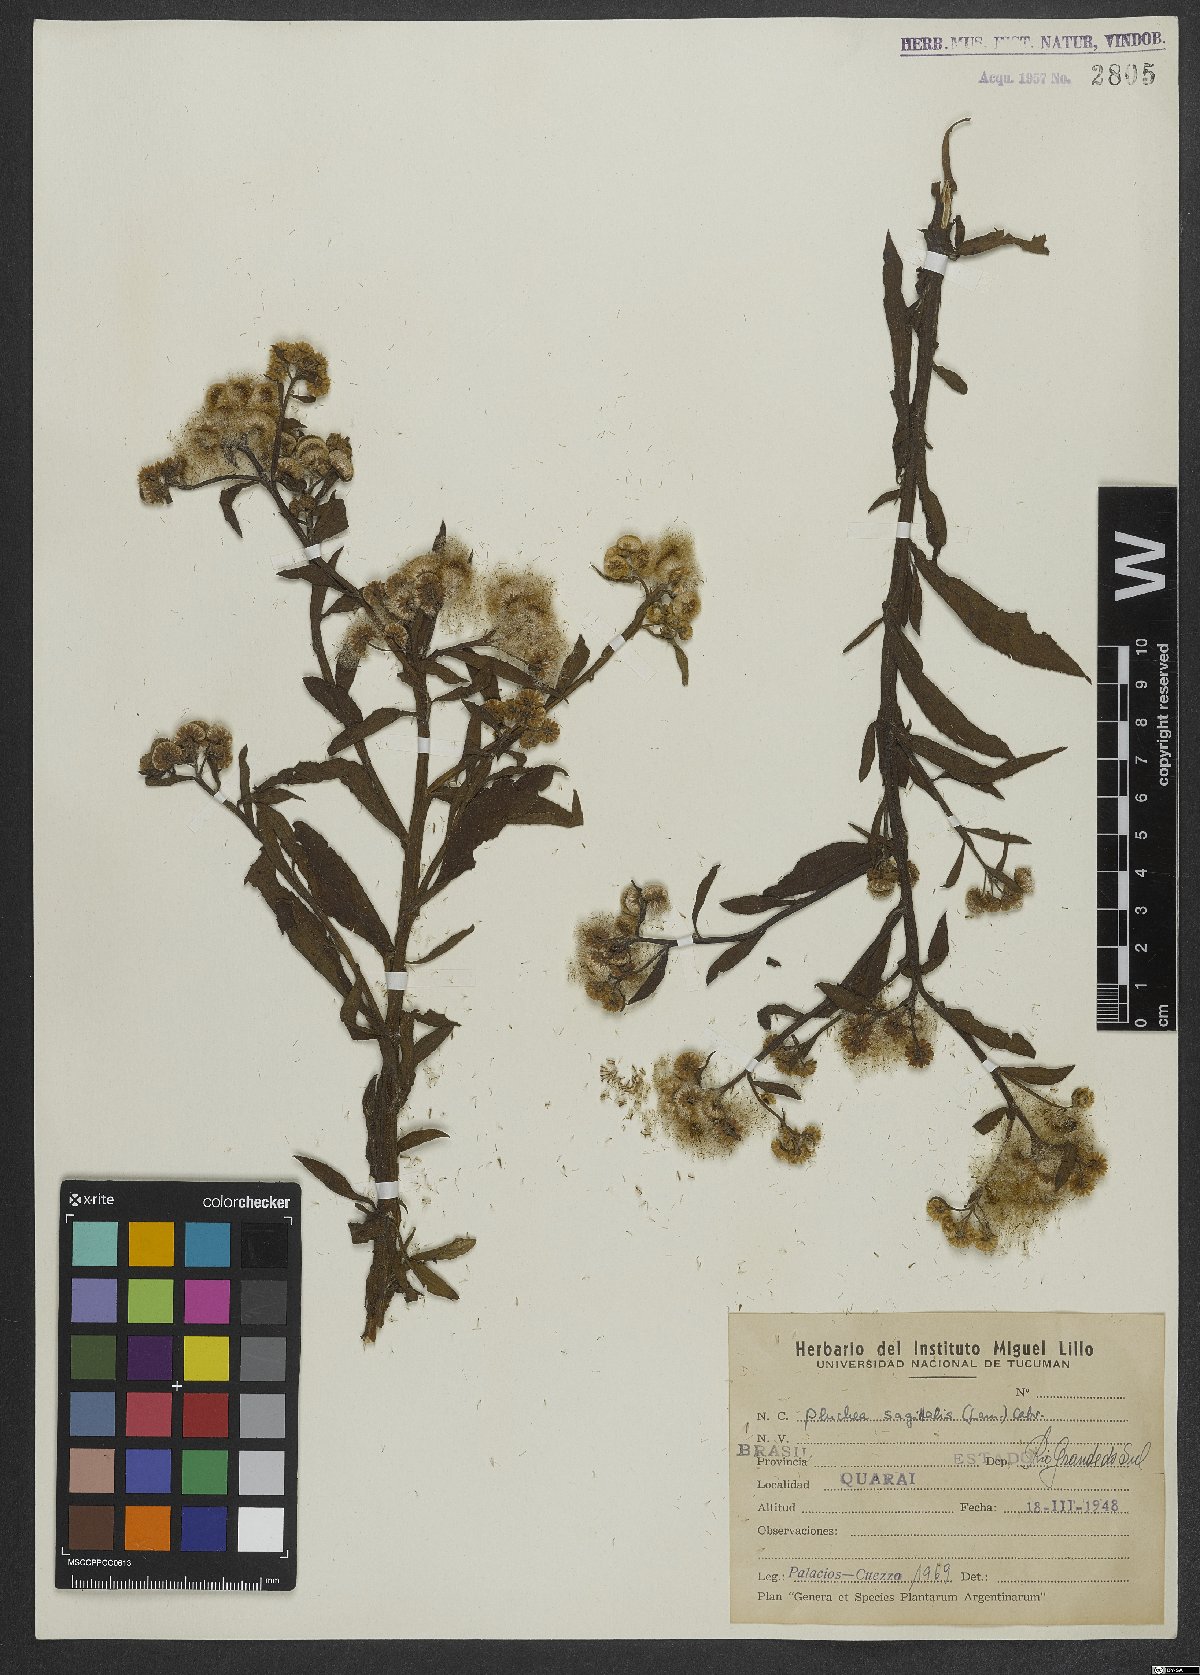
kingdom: Plantae
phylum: Tracheophyta
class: Magnoliopsida
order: Asterales
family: Asteraceae
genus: Pluchea
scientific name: Pluchea sagittalis
